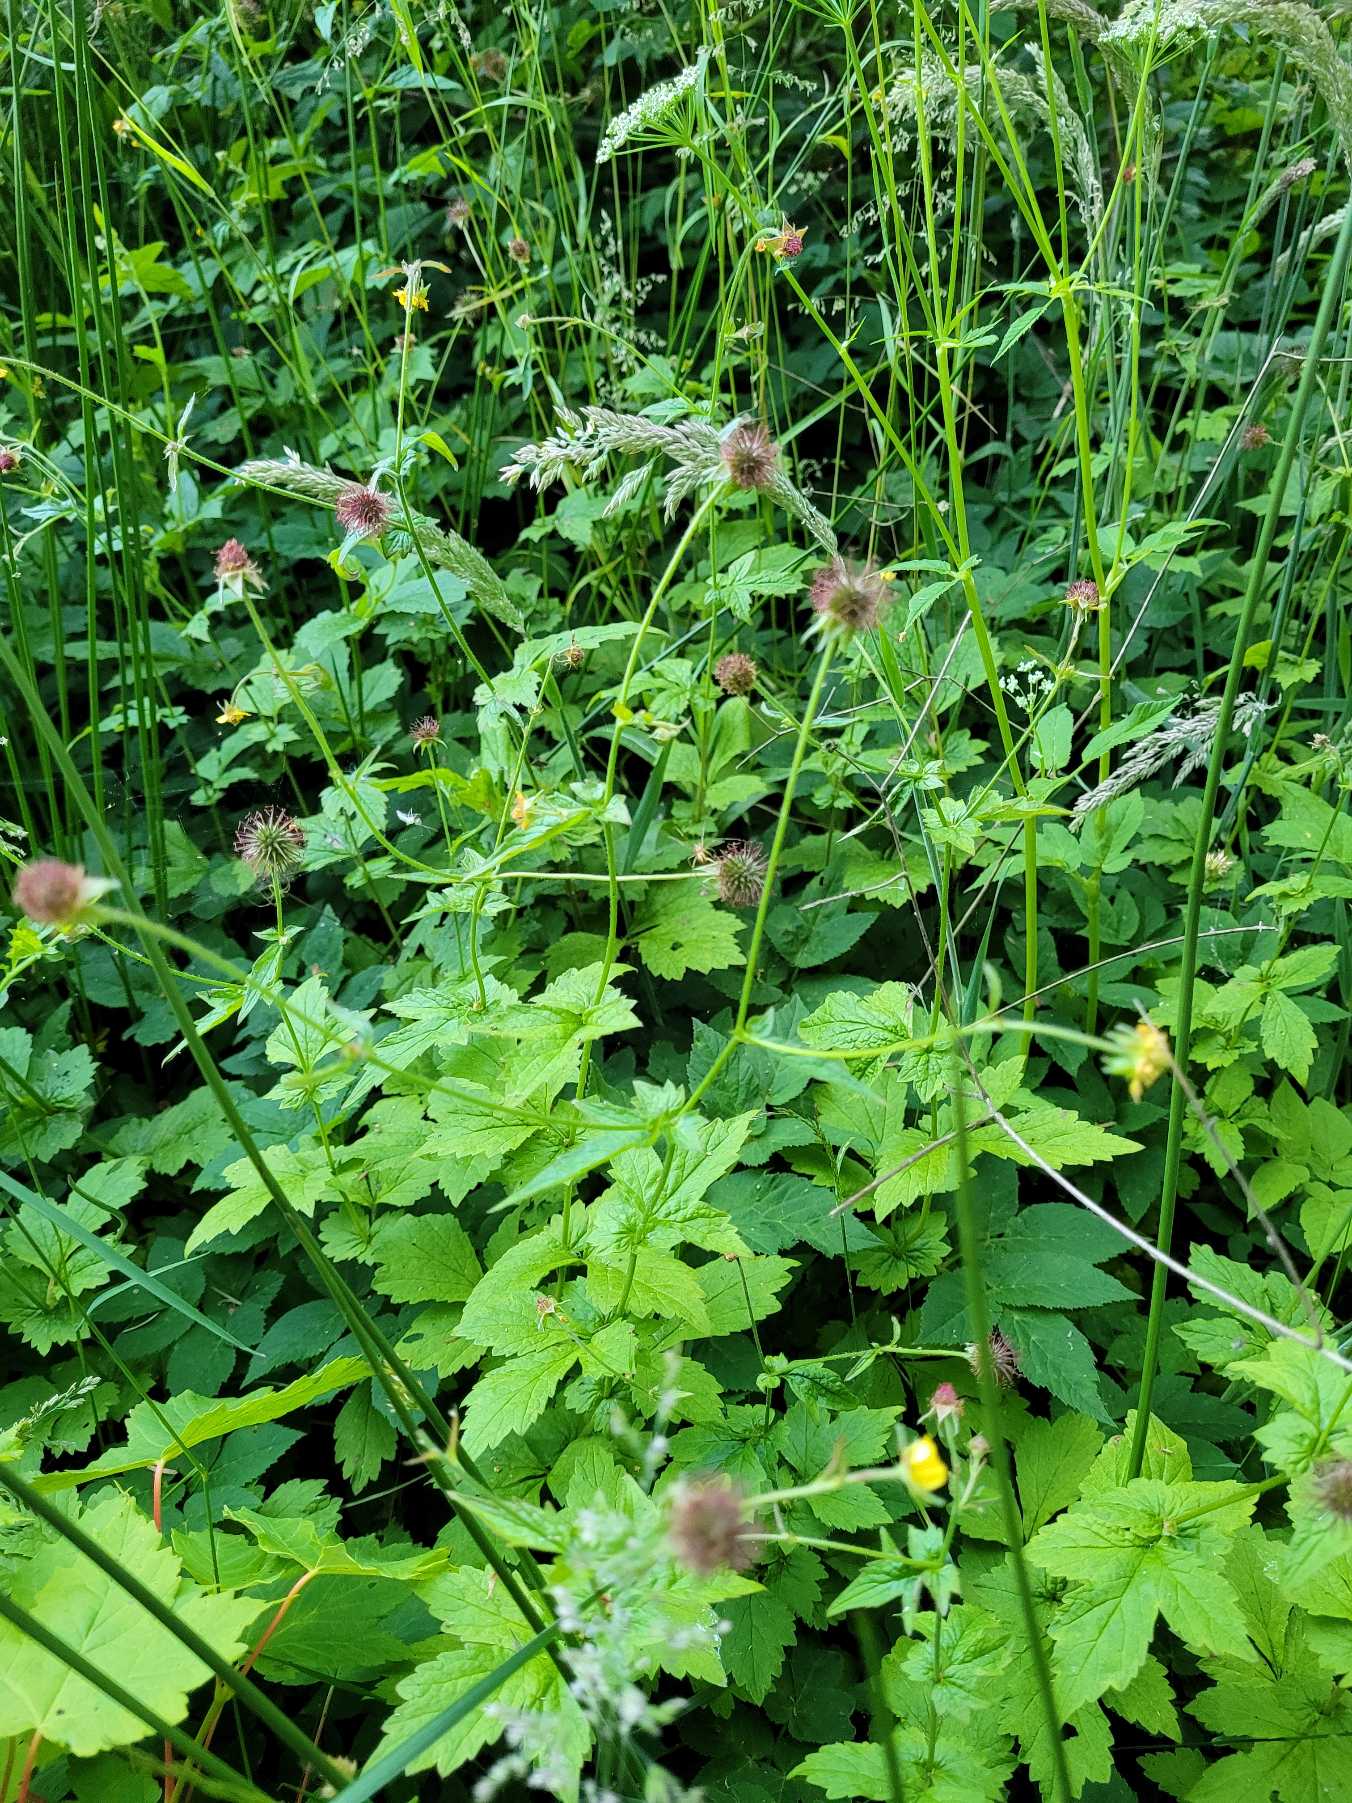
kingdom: Plantae
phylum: Tracheophyta
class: Magnoliopsida
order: Rosales
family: Rosaceae
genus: Geum
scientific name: Geum urbanum
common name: Feber-nellikerod
